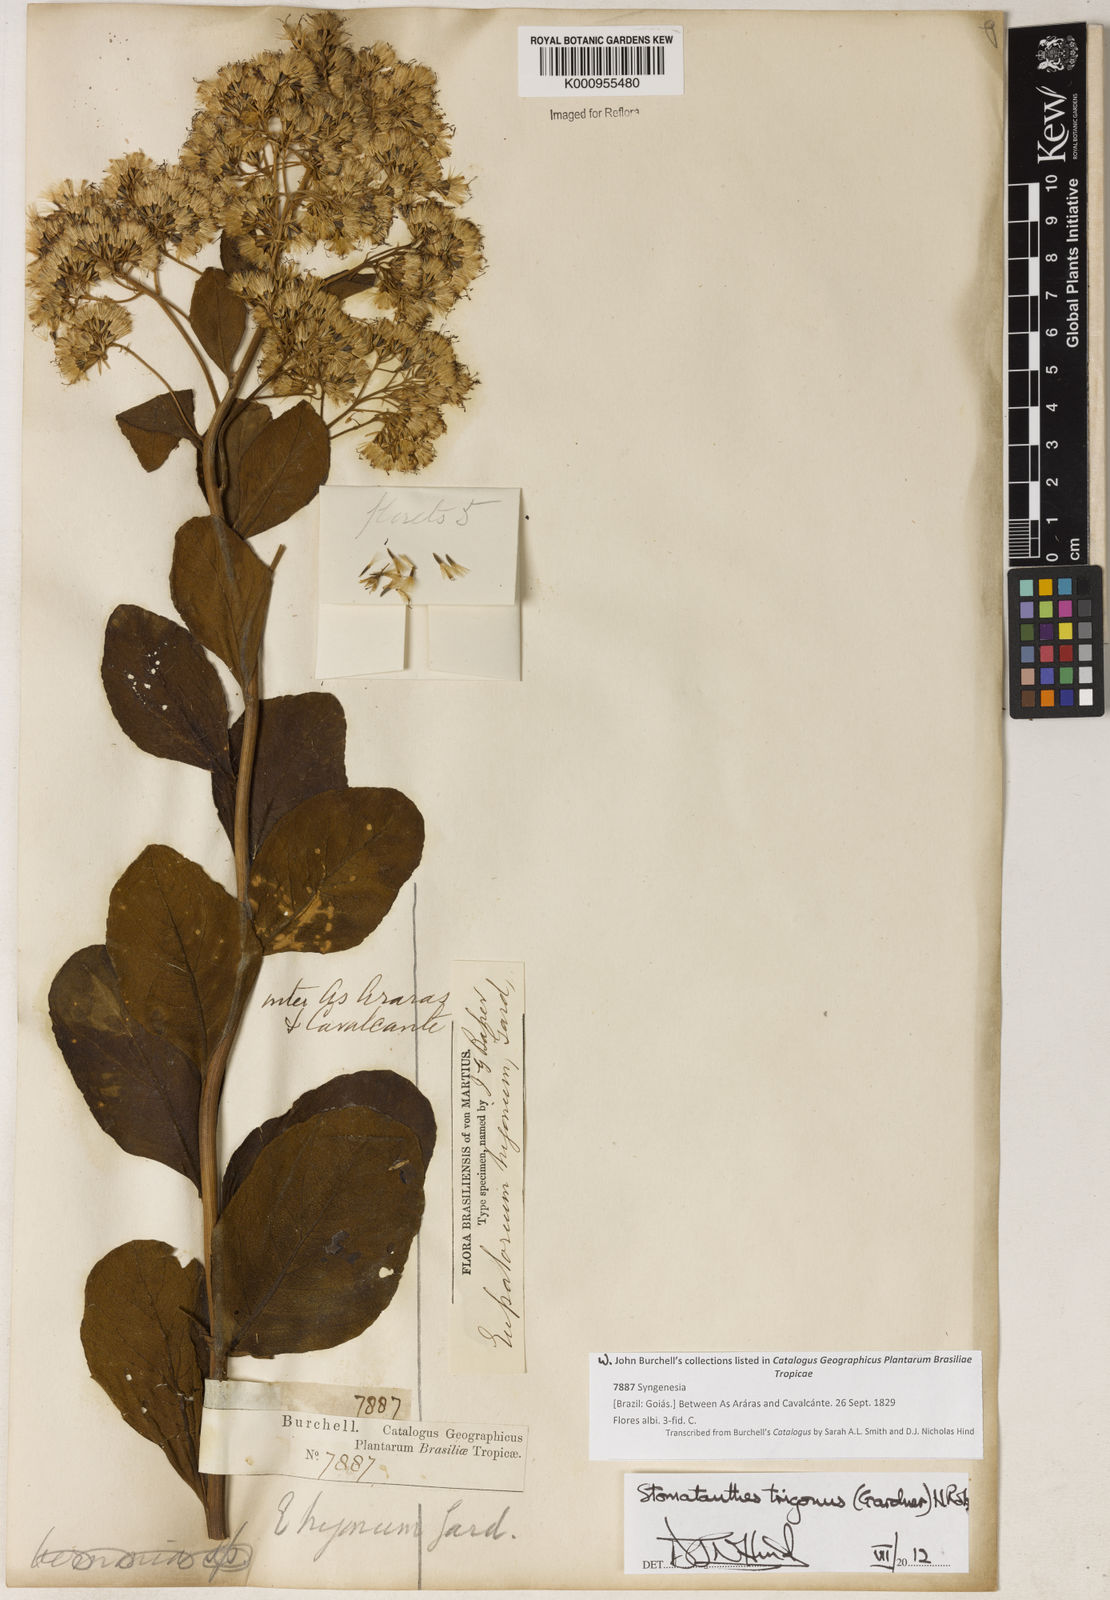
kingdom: Plantae
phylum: Tracheophyta
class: Magnoliopsida
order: Asterales
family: Asteraceae
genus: Stomatanthes
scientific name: Stomatanthes trigonus
